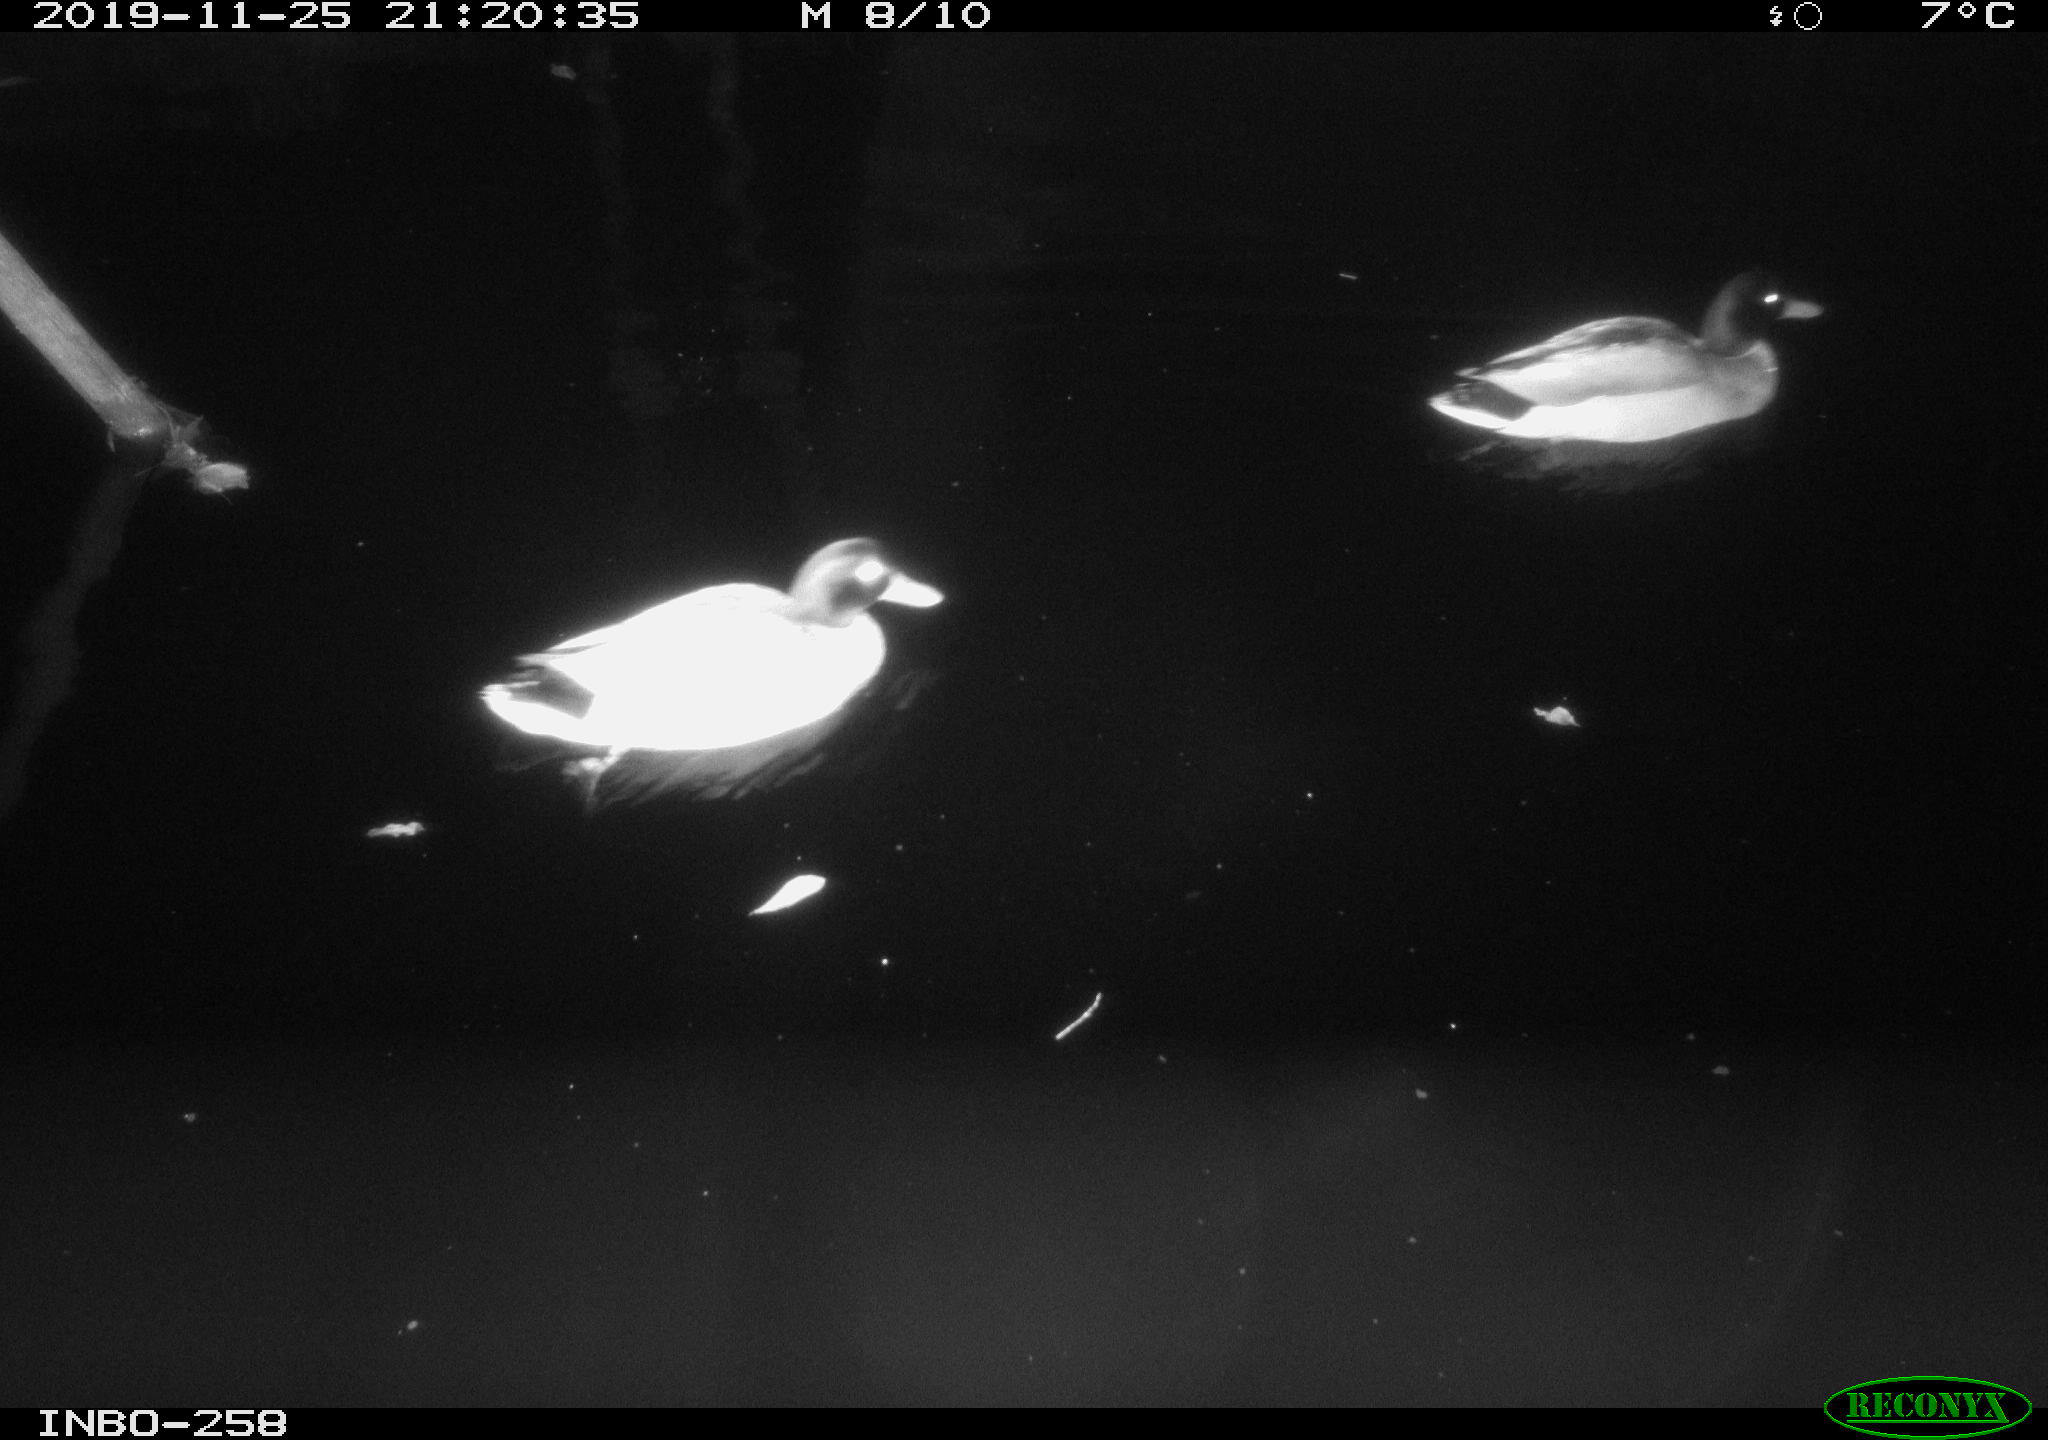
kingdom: Animalia
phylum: Chordata
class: Aves
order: Anseriformes
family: Anatidae
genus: Anas
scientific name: Anas platyrhynchos
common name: Mallard
